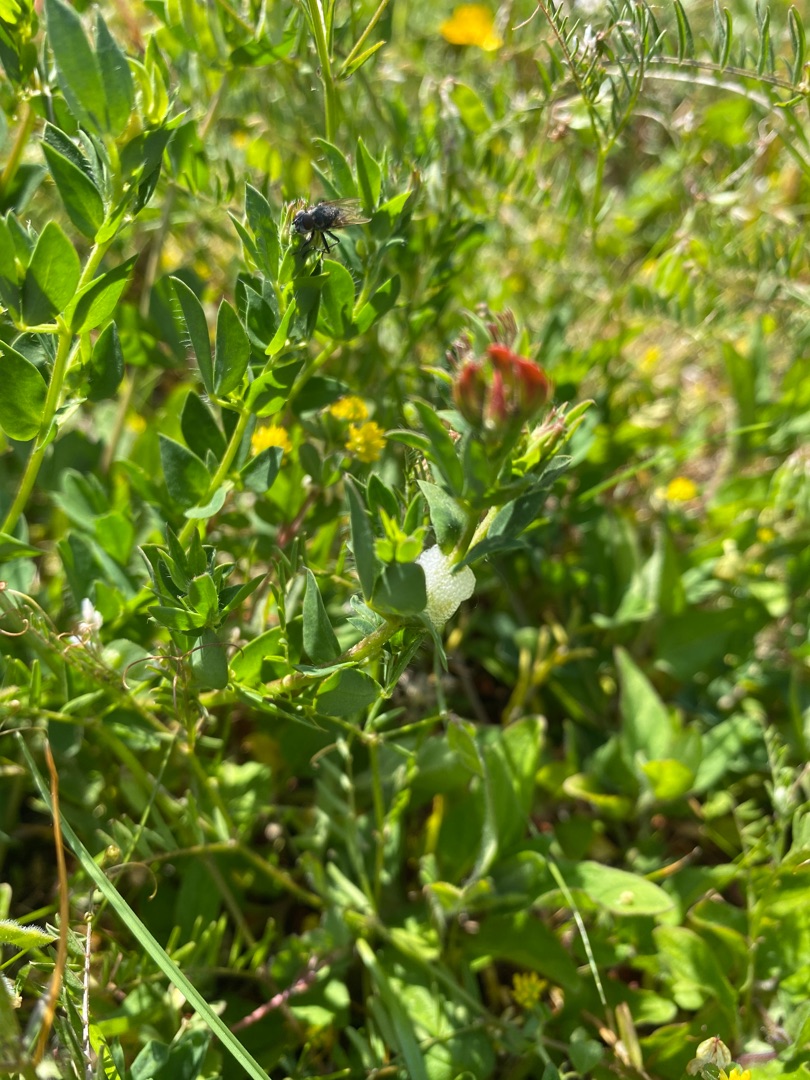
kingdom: Plantae
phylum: Tracheophyta
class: Magnoliopsida
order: Fabales
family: Fabaceae
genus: Lotus
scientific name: Lotus corniculatus
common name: Almindelig kællingetand
